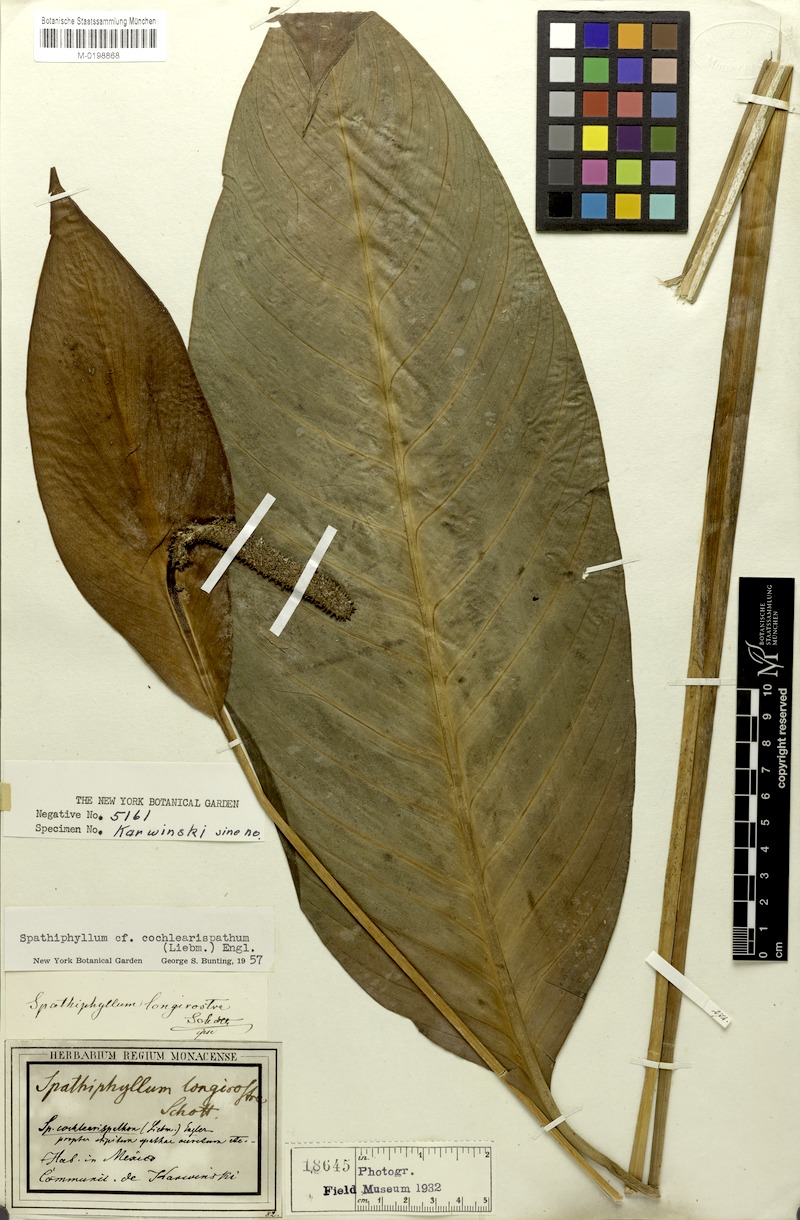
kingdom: Plantae
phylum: Tracheophyta
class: Liliopsida
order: Alismatales
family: Araceae
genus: Spathiphyllum
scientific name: Spathiphyllum cochlearispathum
